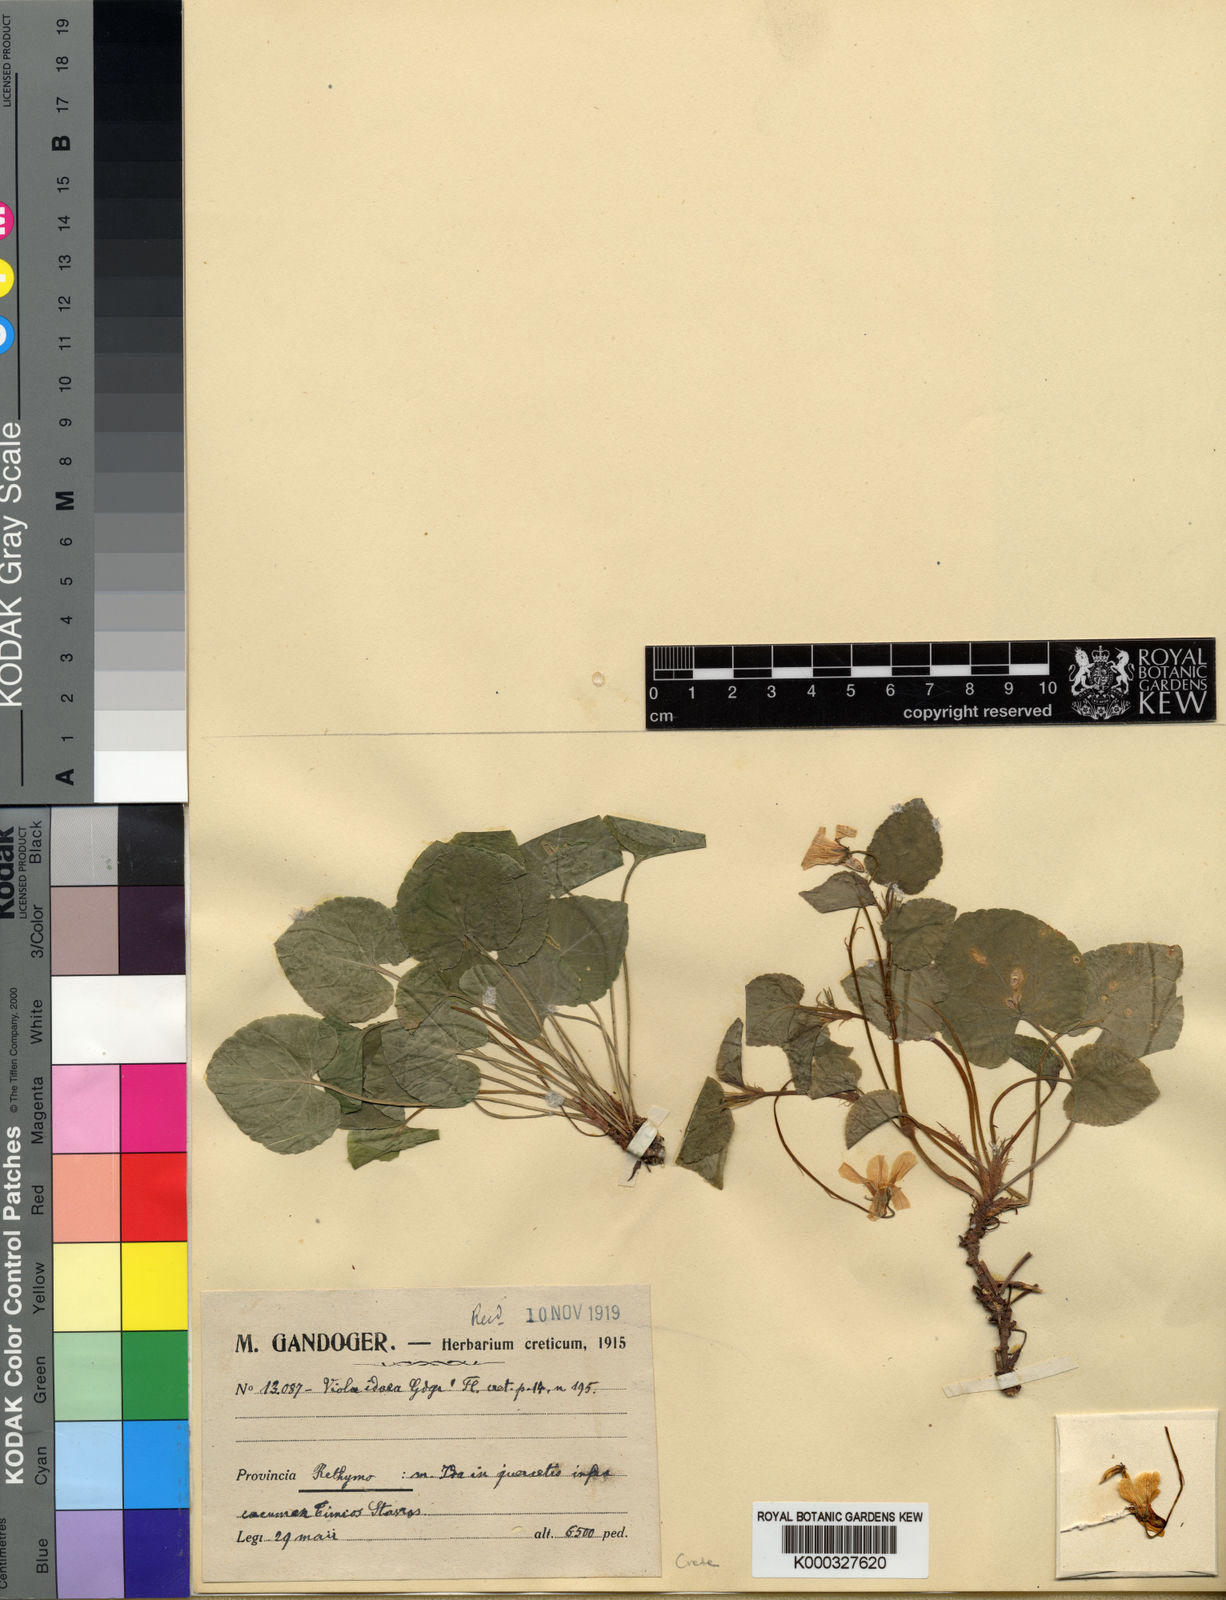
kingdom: Plantae
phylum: Tracheophyta
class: Magnoliopsida
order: Malpighiales
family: Violaceae
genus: Viola
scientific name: Viola reichenbachiana
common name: Early dog-violet
